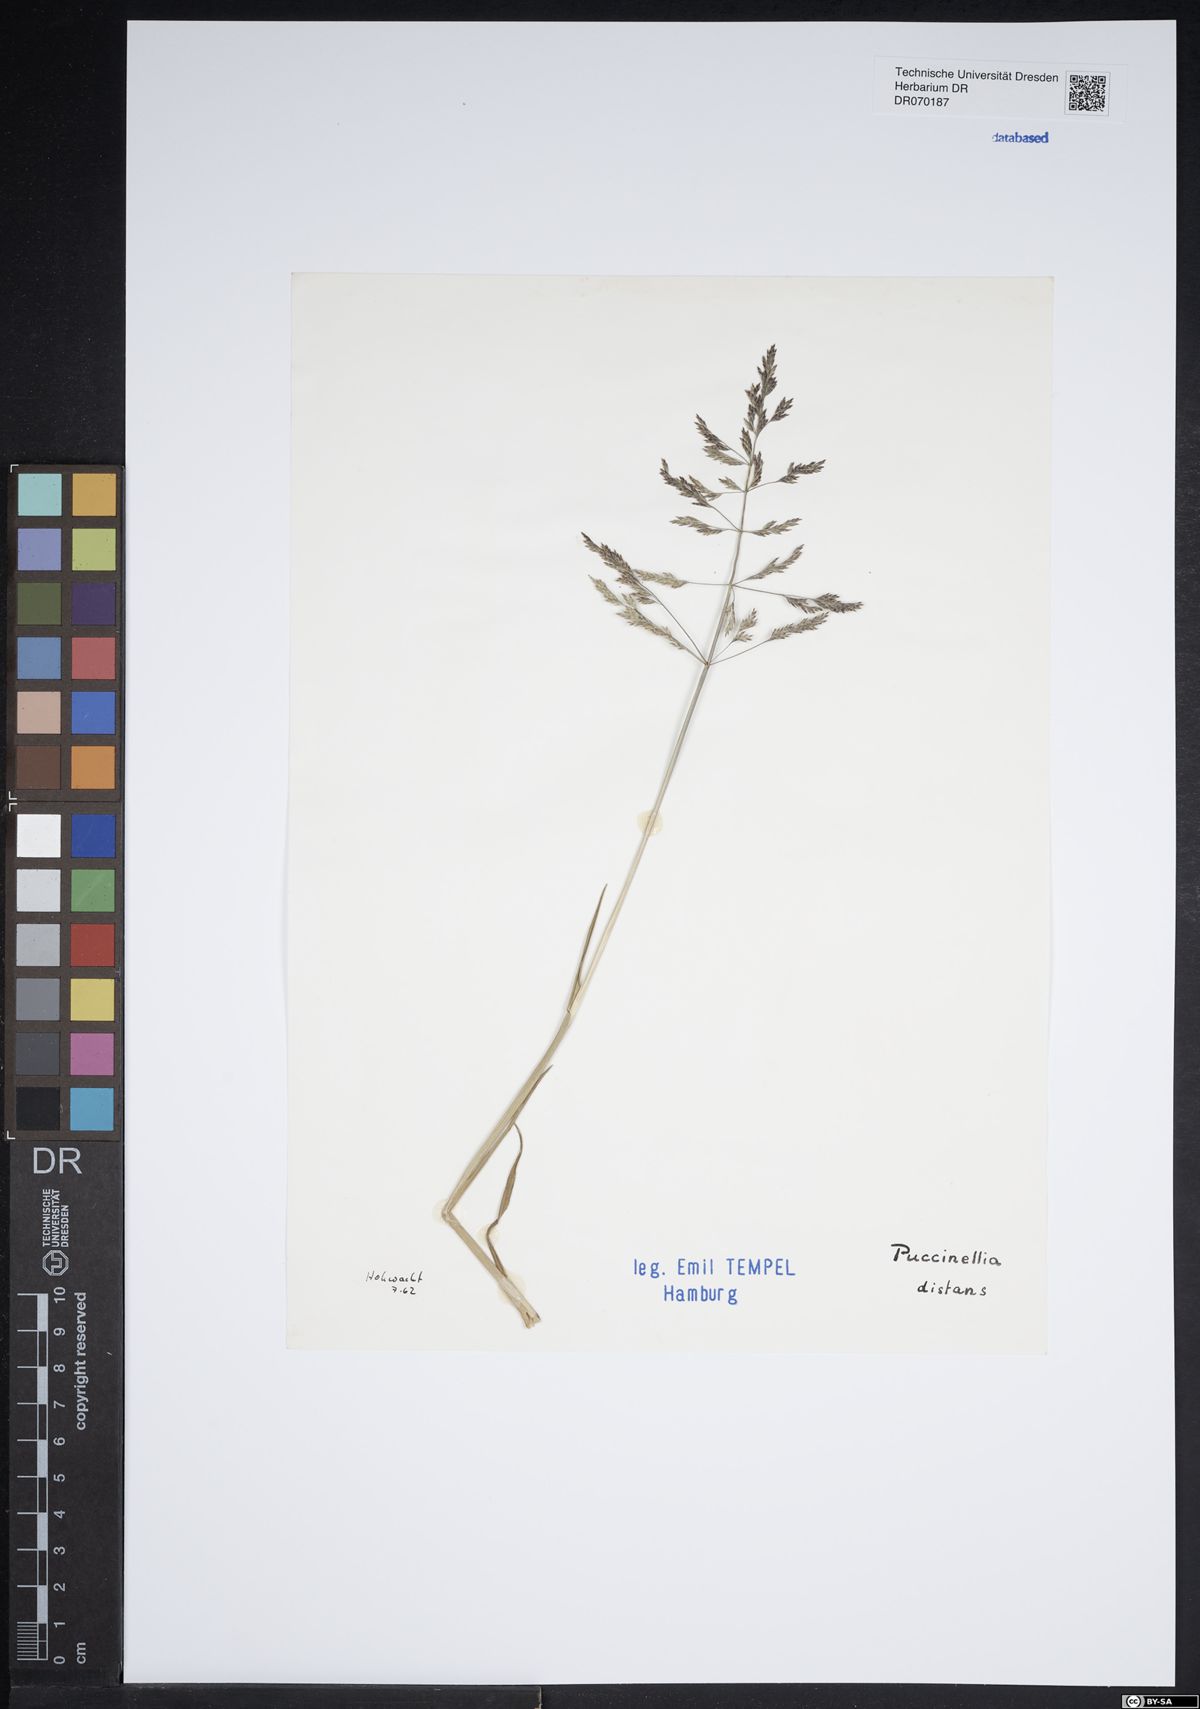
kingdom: Plantae
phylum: Tracheophyta
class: Liliopsida
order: Poales
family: Poaceae
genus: Puccinellia
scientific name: Puccinellia distans
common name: Weeping alkaligrass
